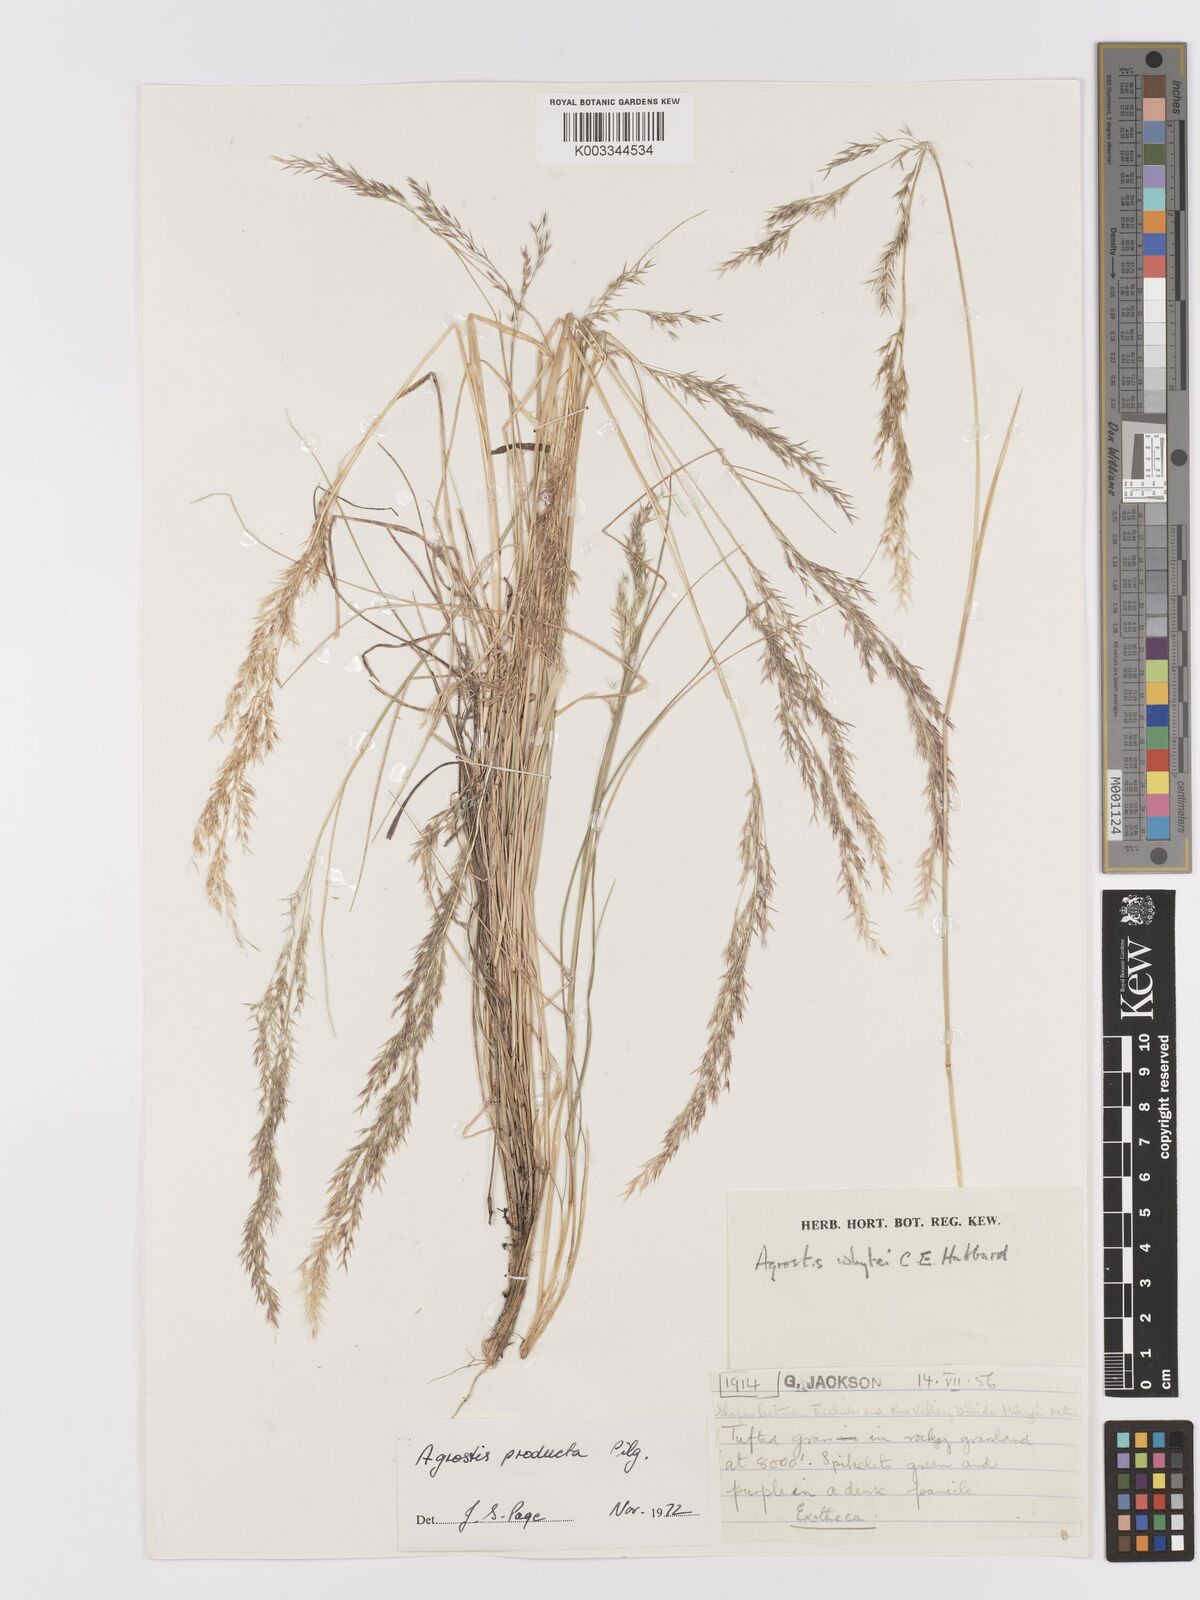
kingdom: Plantae
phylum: Tracheophyta
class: Liliopsida
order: Poales
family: Poaceae
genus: Agrostis
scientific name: Agrostis producta
